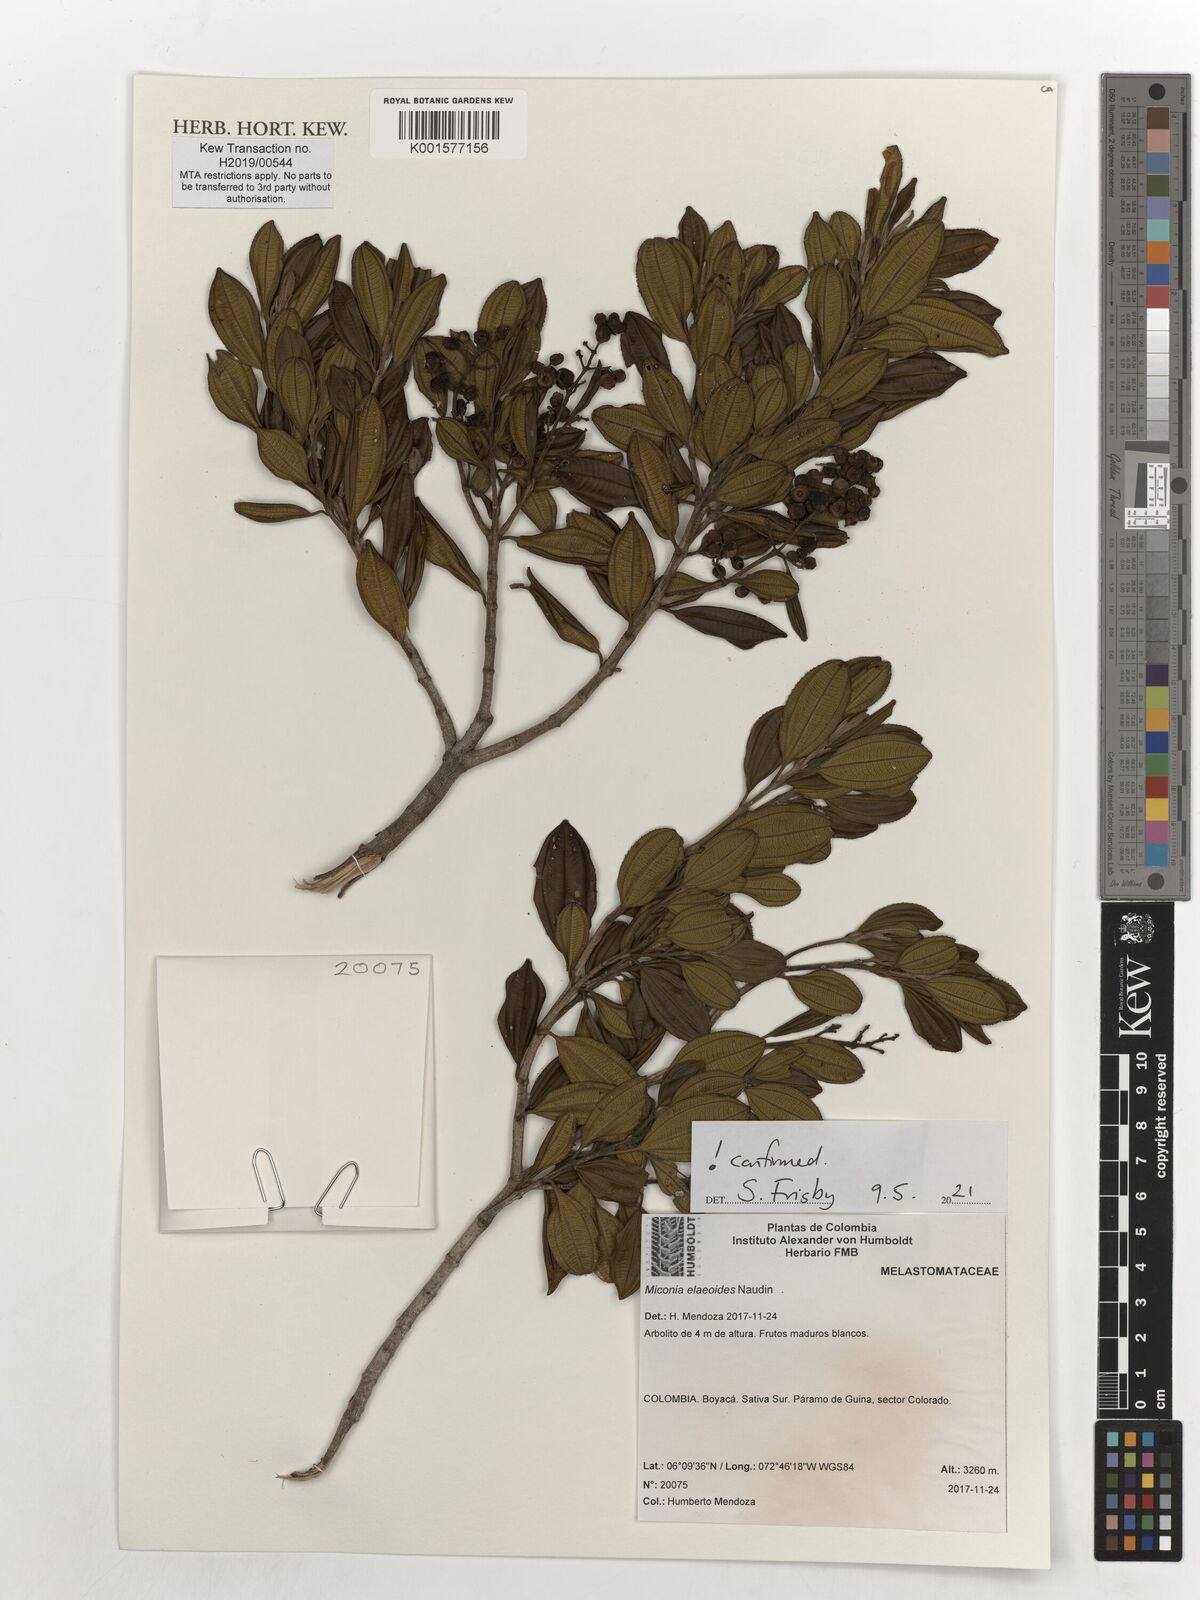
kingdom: Plantae
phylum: Tracheophyta
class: Magnoliopsida
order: Myrtales
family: Melastomataceae
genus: Miconia
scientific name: Miconia elaeoides
